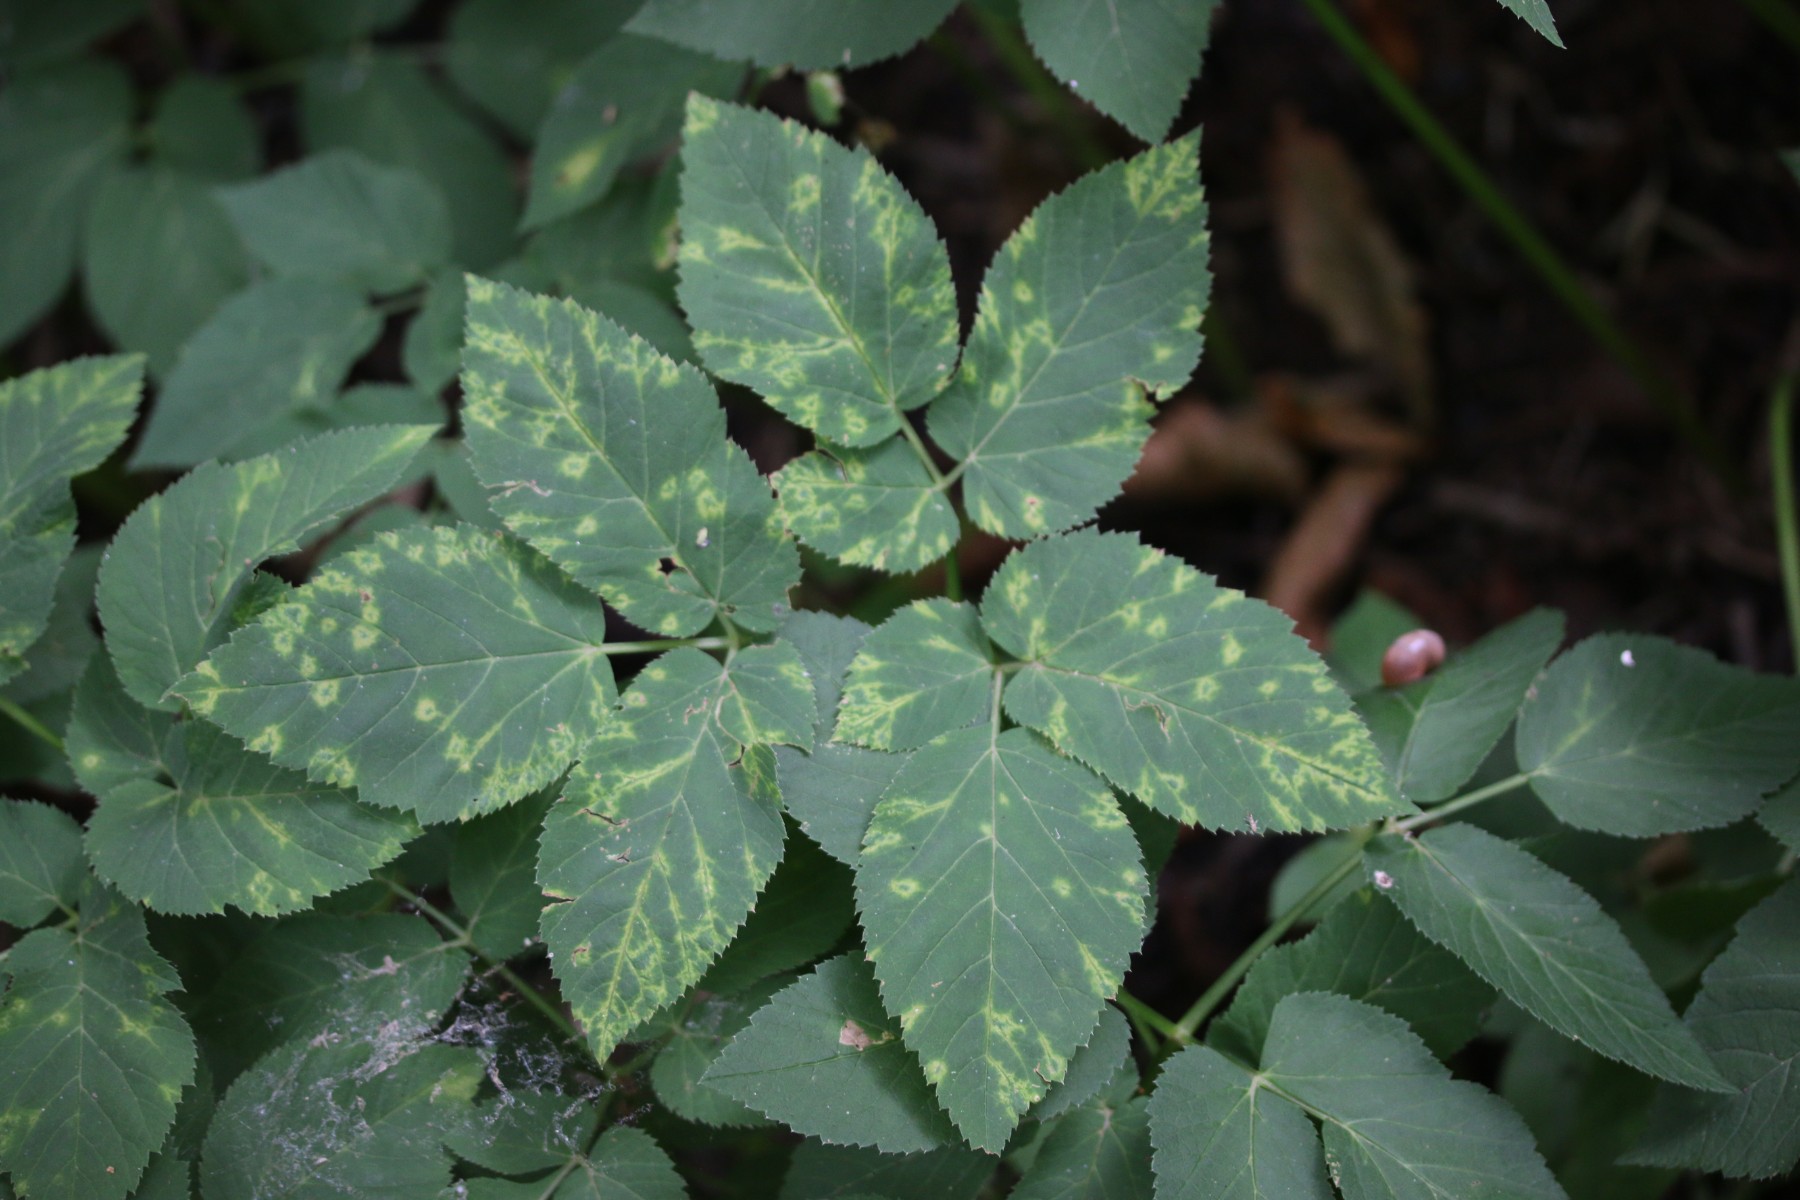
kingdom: Chromista
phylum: Oomycota
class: Peronosporea
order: Peronosporales
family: Peronosporaceae
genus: Peronospora
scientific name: Peronospora crustosa
